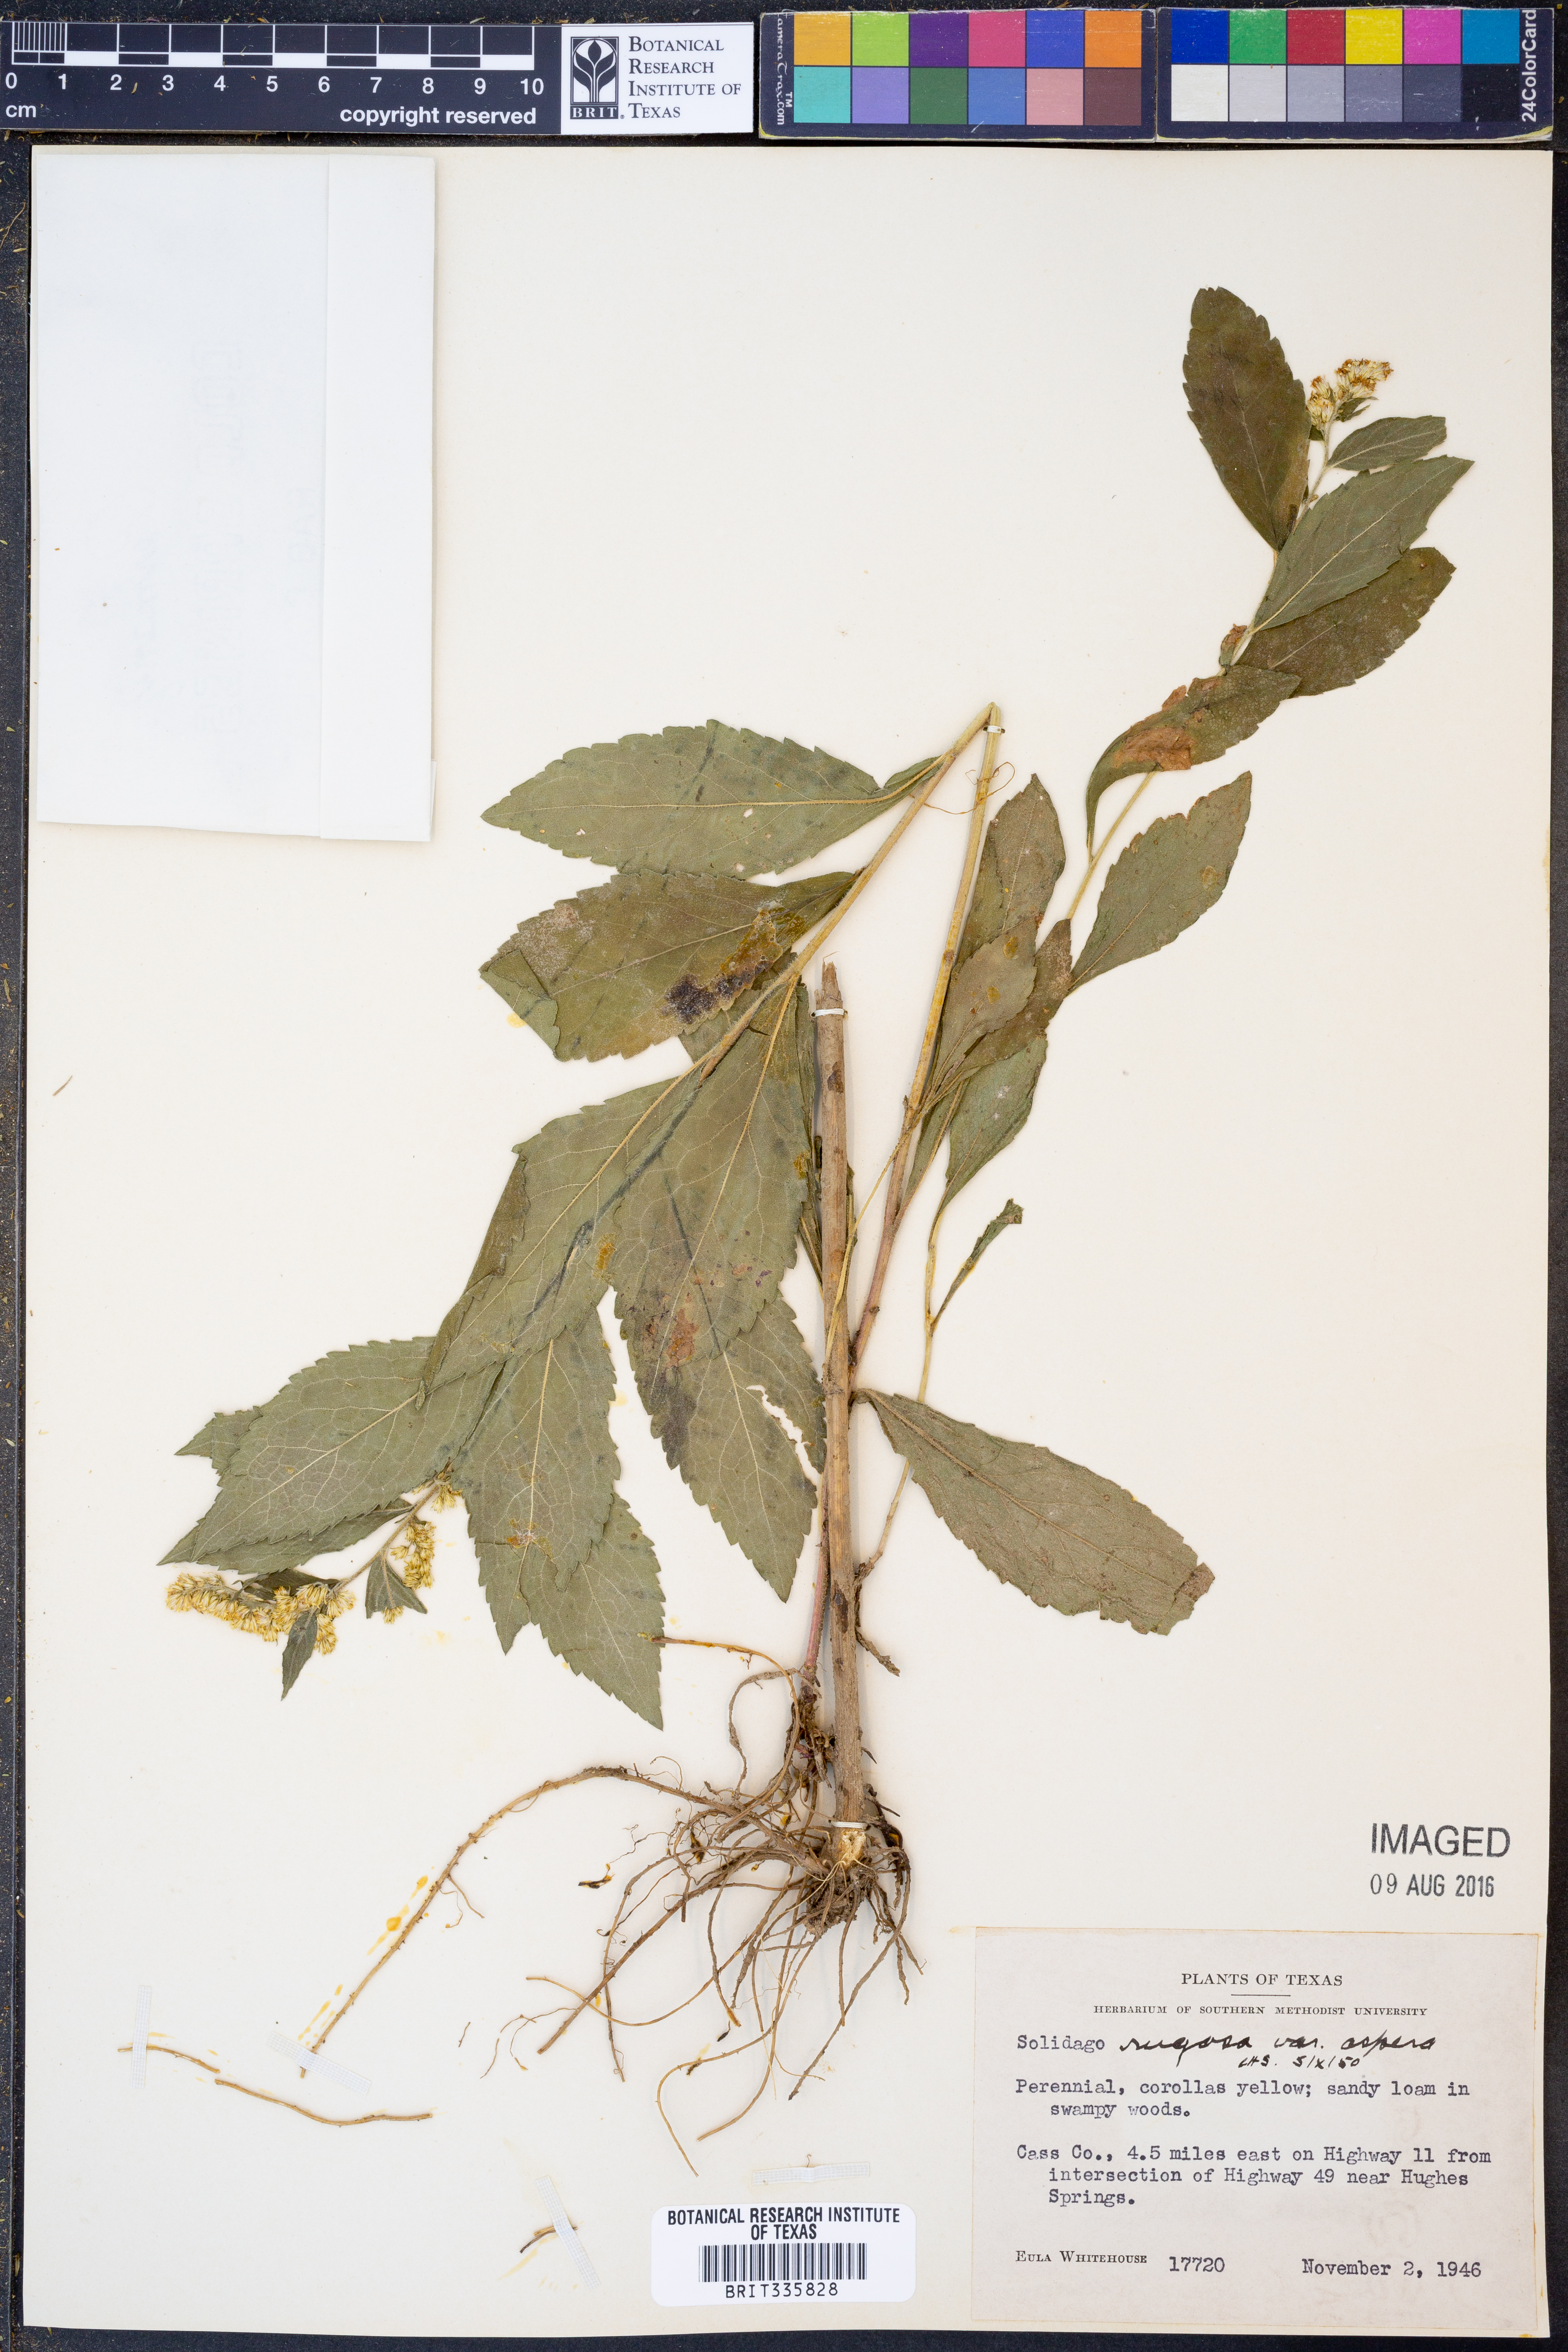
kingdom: Plantae
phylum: Tracheophyta
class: Magnoliopsida
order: Asterales
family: Asteraceae
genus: Solidago
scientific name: Solidago rugosa
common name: Rough-stemmed goldenrod
